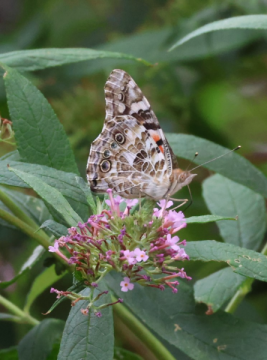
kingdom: Animalia
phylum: Arthropoda
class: Insecta
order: Lepidoptera
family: Nymphalidae
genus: Vanessa
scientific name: Vanessa cardui
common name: Painted Lady
